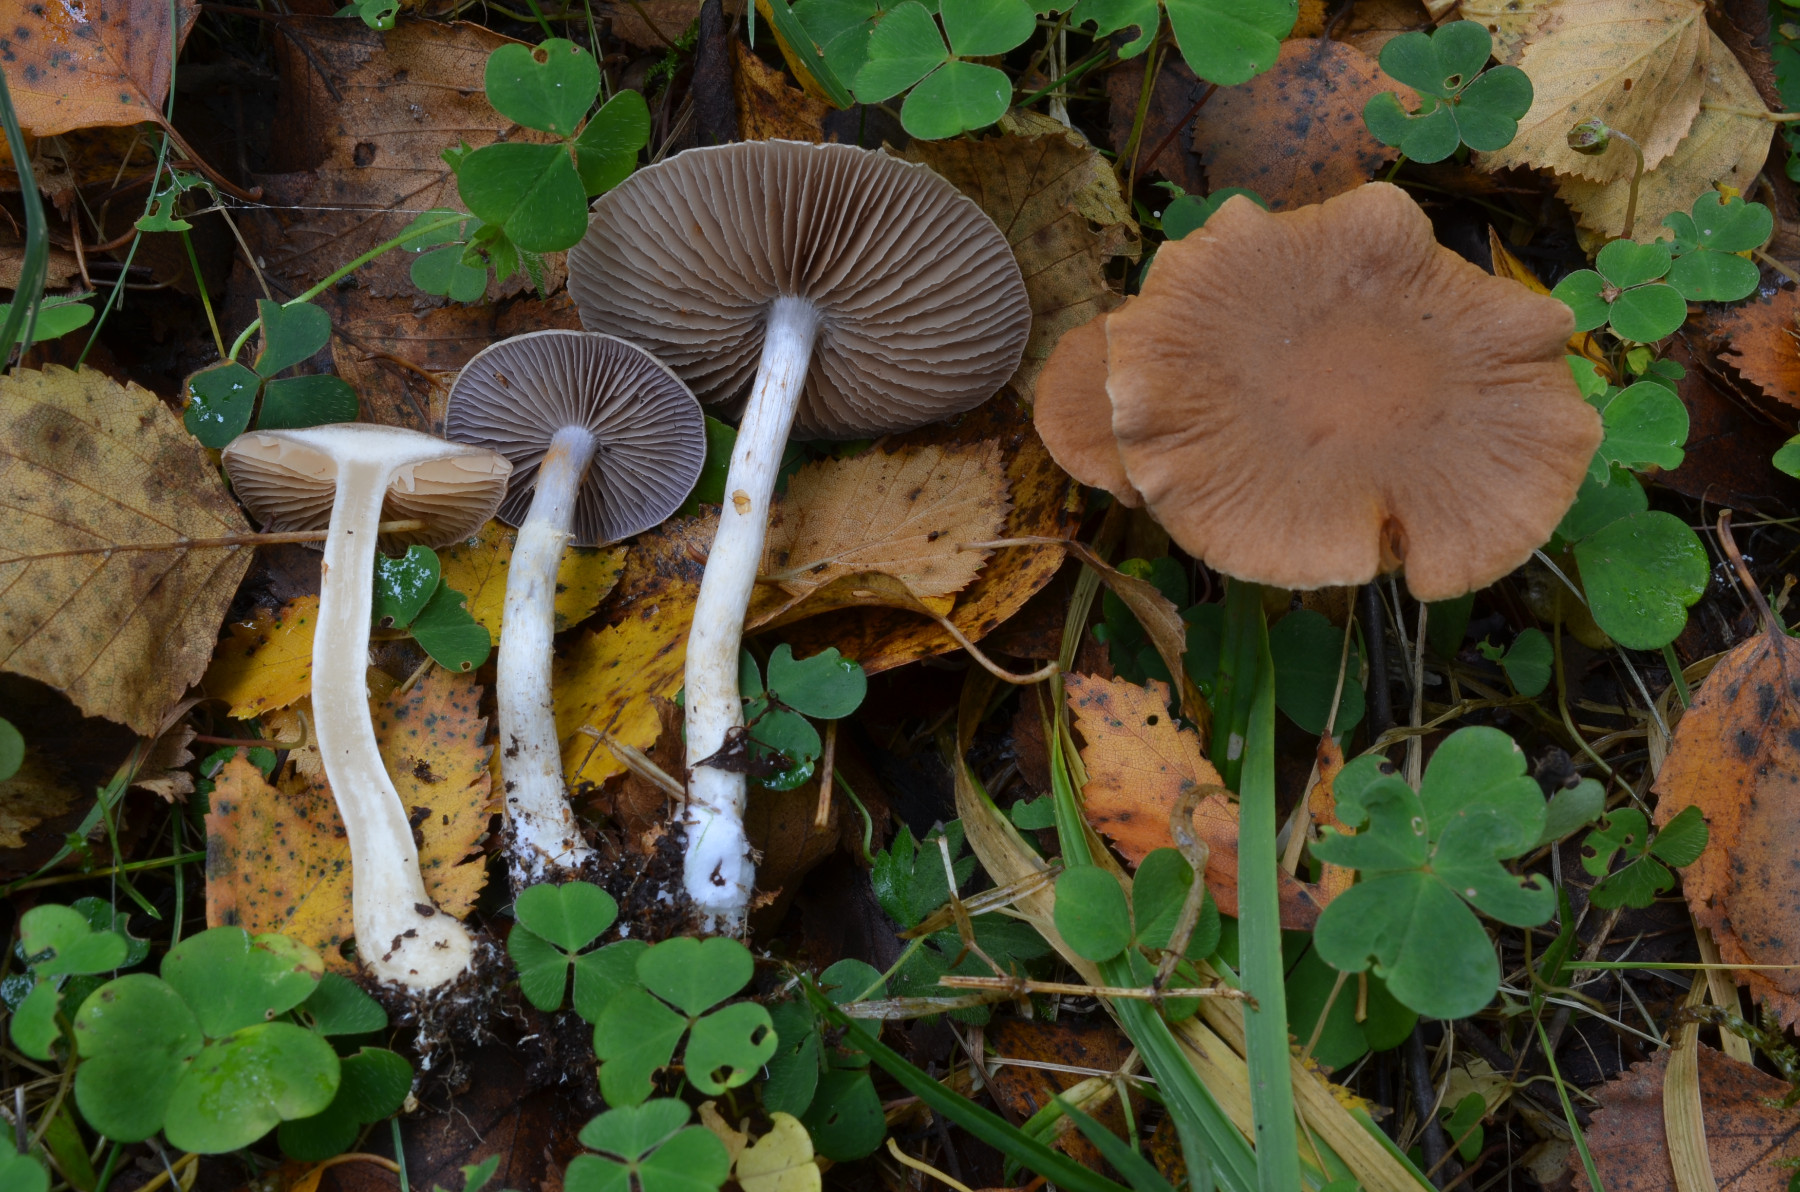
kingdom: Fungi
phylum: Basidiomycota
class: Agaricomycetes
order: Agaricales
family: Cortinariaceae
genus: Cortinarius
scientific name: Cortinarius anomalus
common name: Variable webcap
